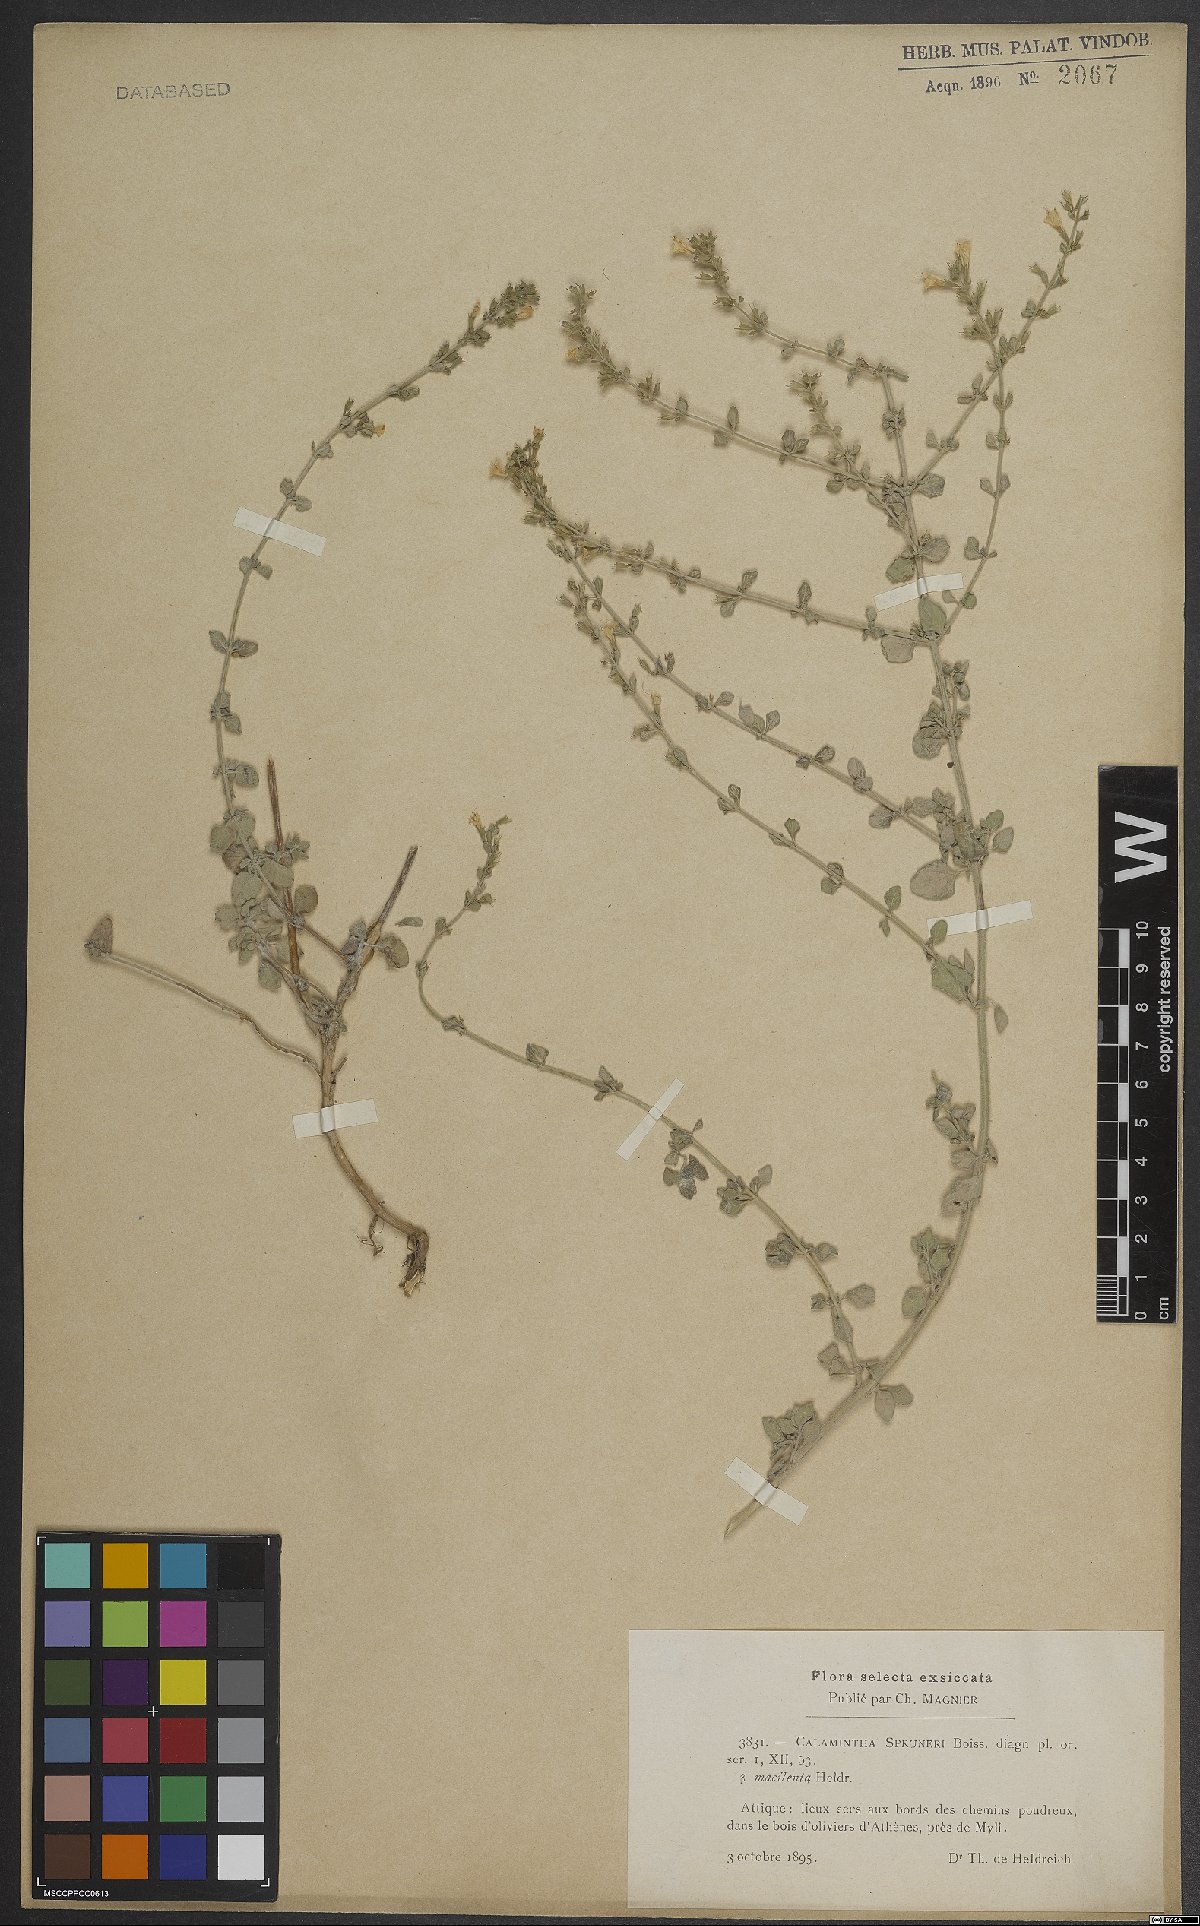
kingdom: Plantae
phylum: Tracheophyta
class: Magnoliopsida
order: Lamiales
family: Lamiaceae
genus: Clinopodium
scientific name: Clinopodium nepeta
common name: Lesser calamint
